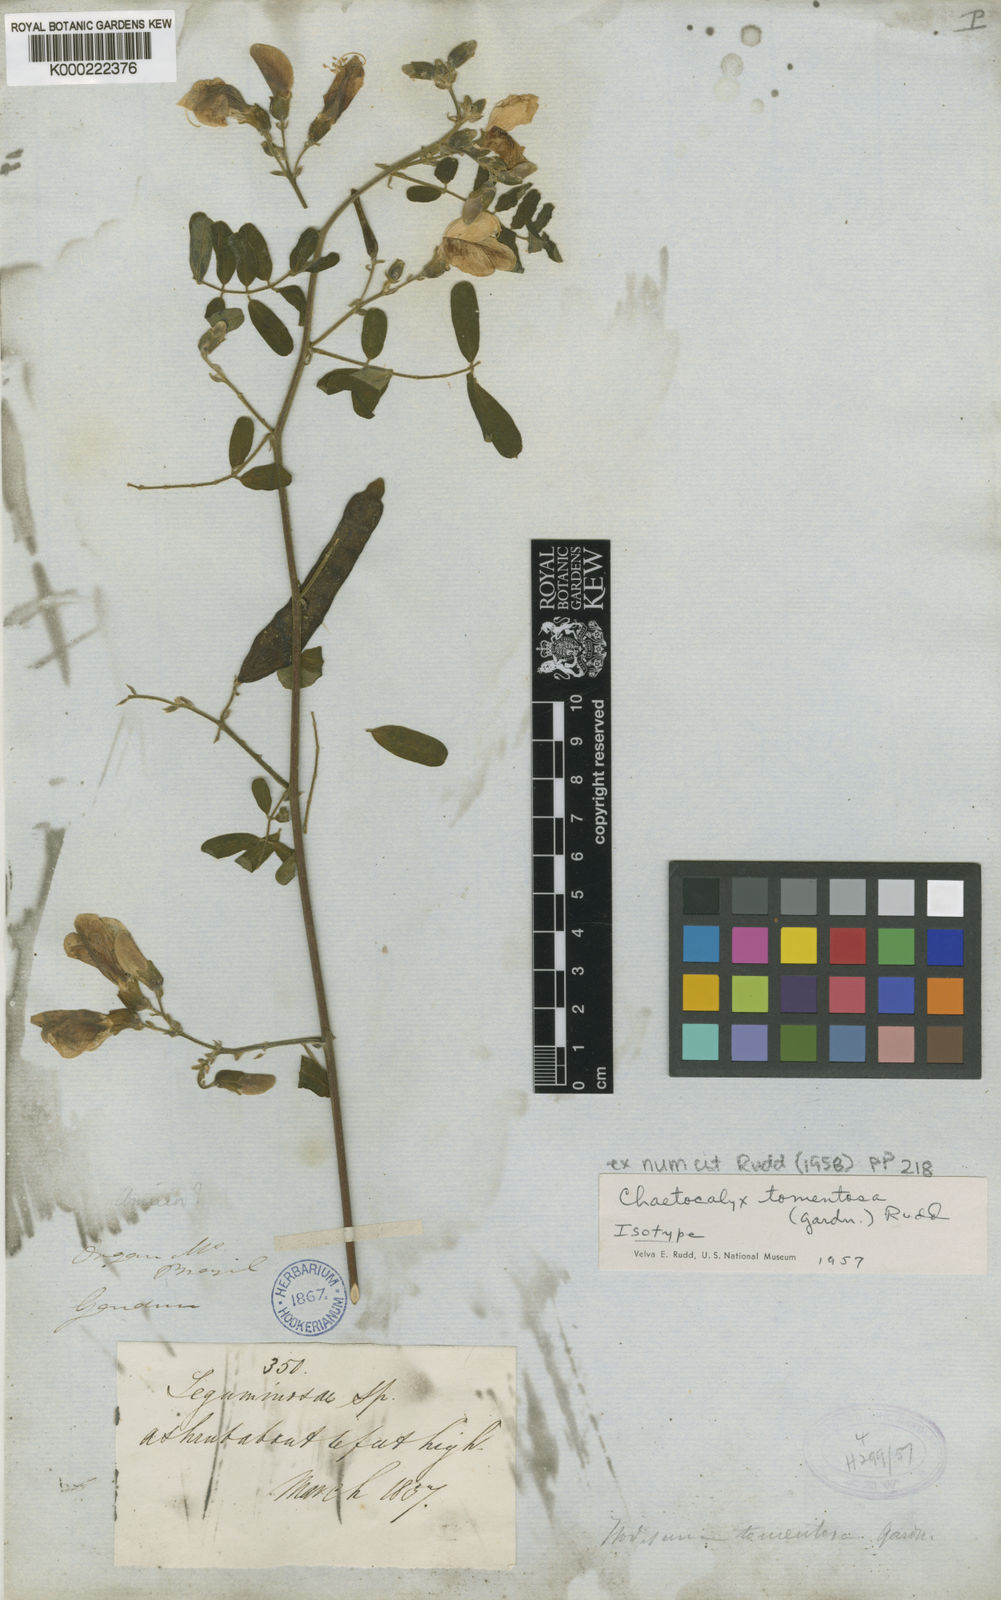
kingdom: Plantae
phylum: Tracheophyta
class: Magnoliopsida
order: Fabales
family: Fabaceae
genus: Nissolia
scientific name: Nissolia tomentosa
